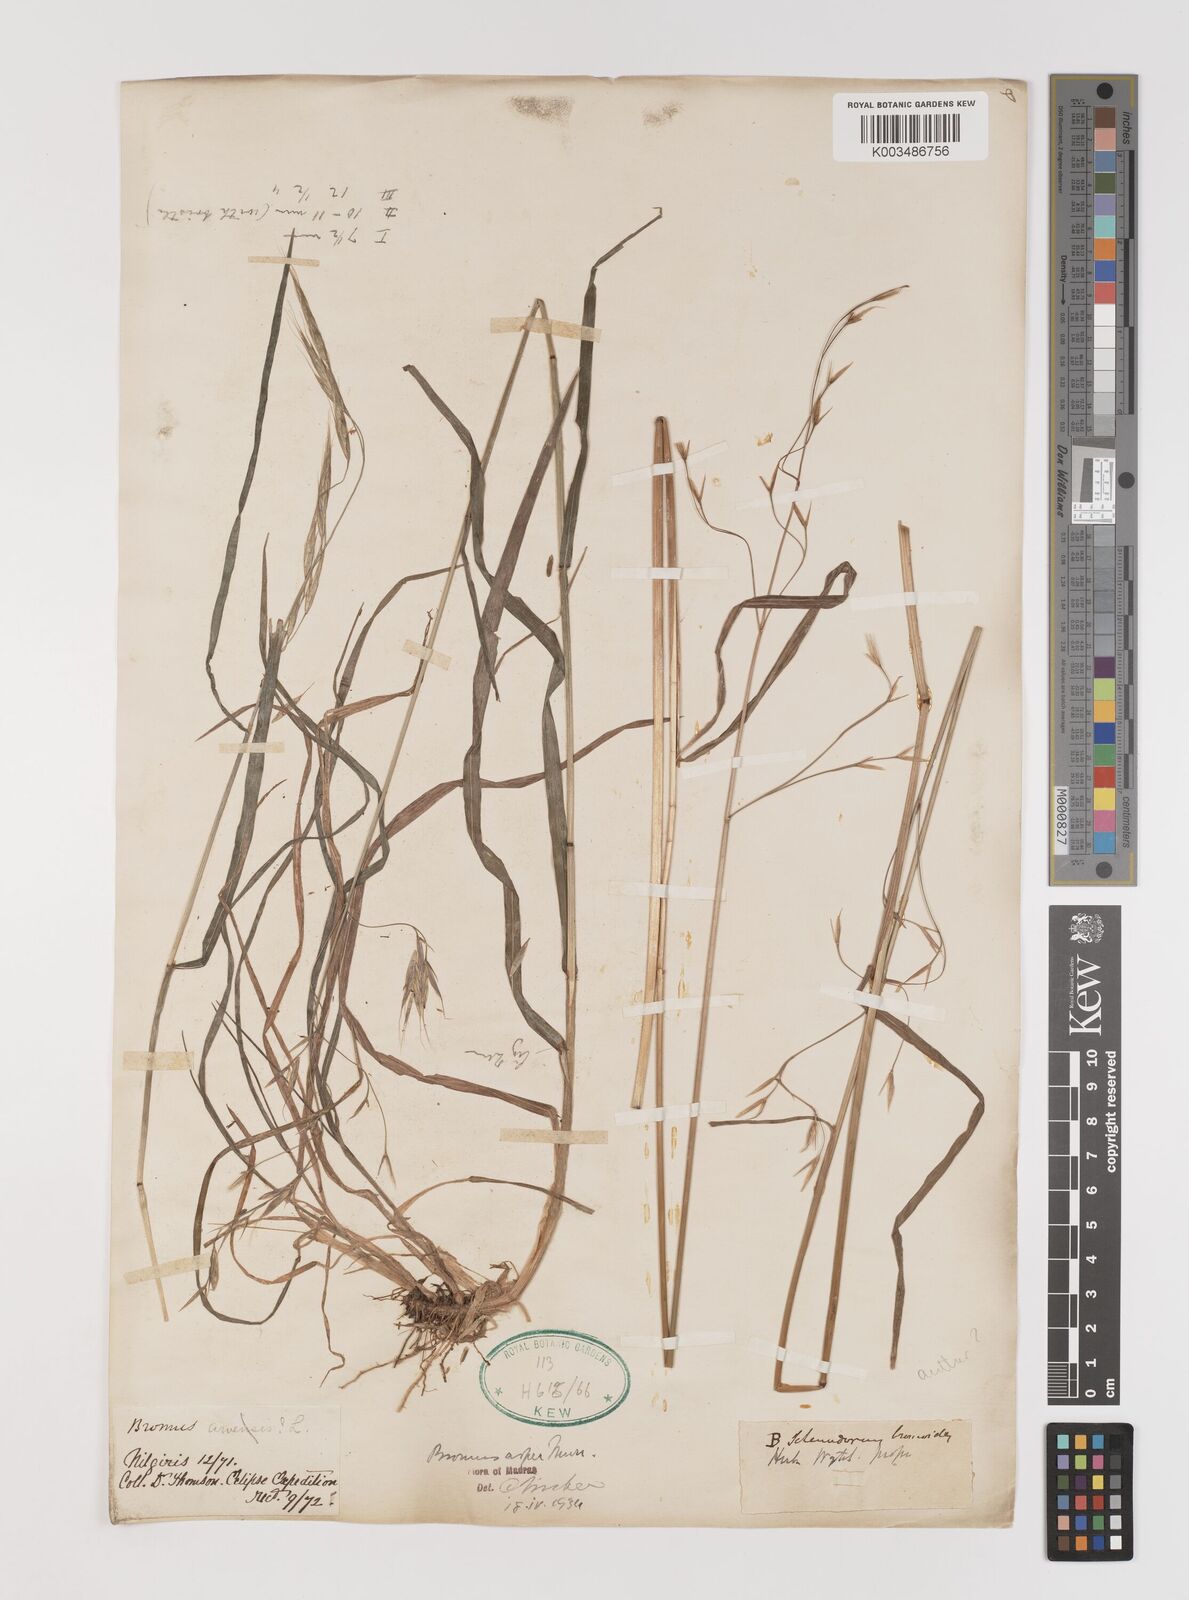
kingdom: Plantae
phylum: Tracheophyta
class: Liliopsida
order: Poales
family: Poaceae
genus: Brachypodium
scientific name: Brachypodium retusum
